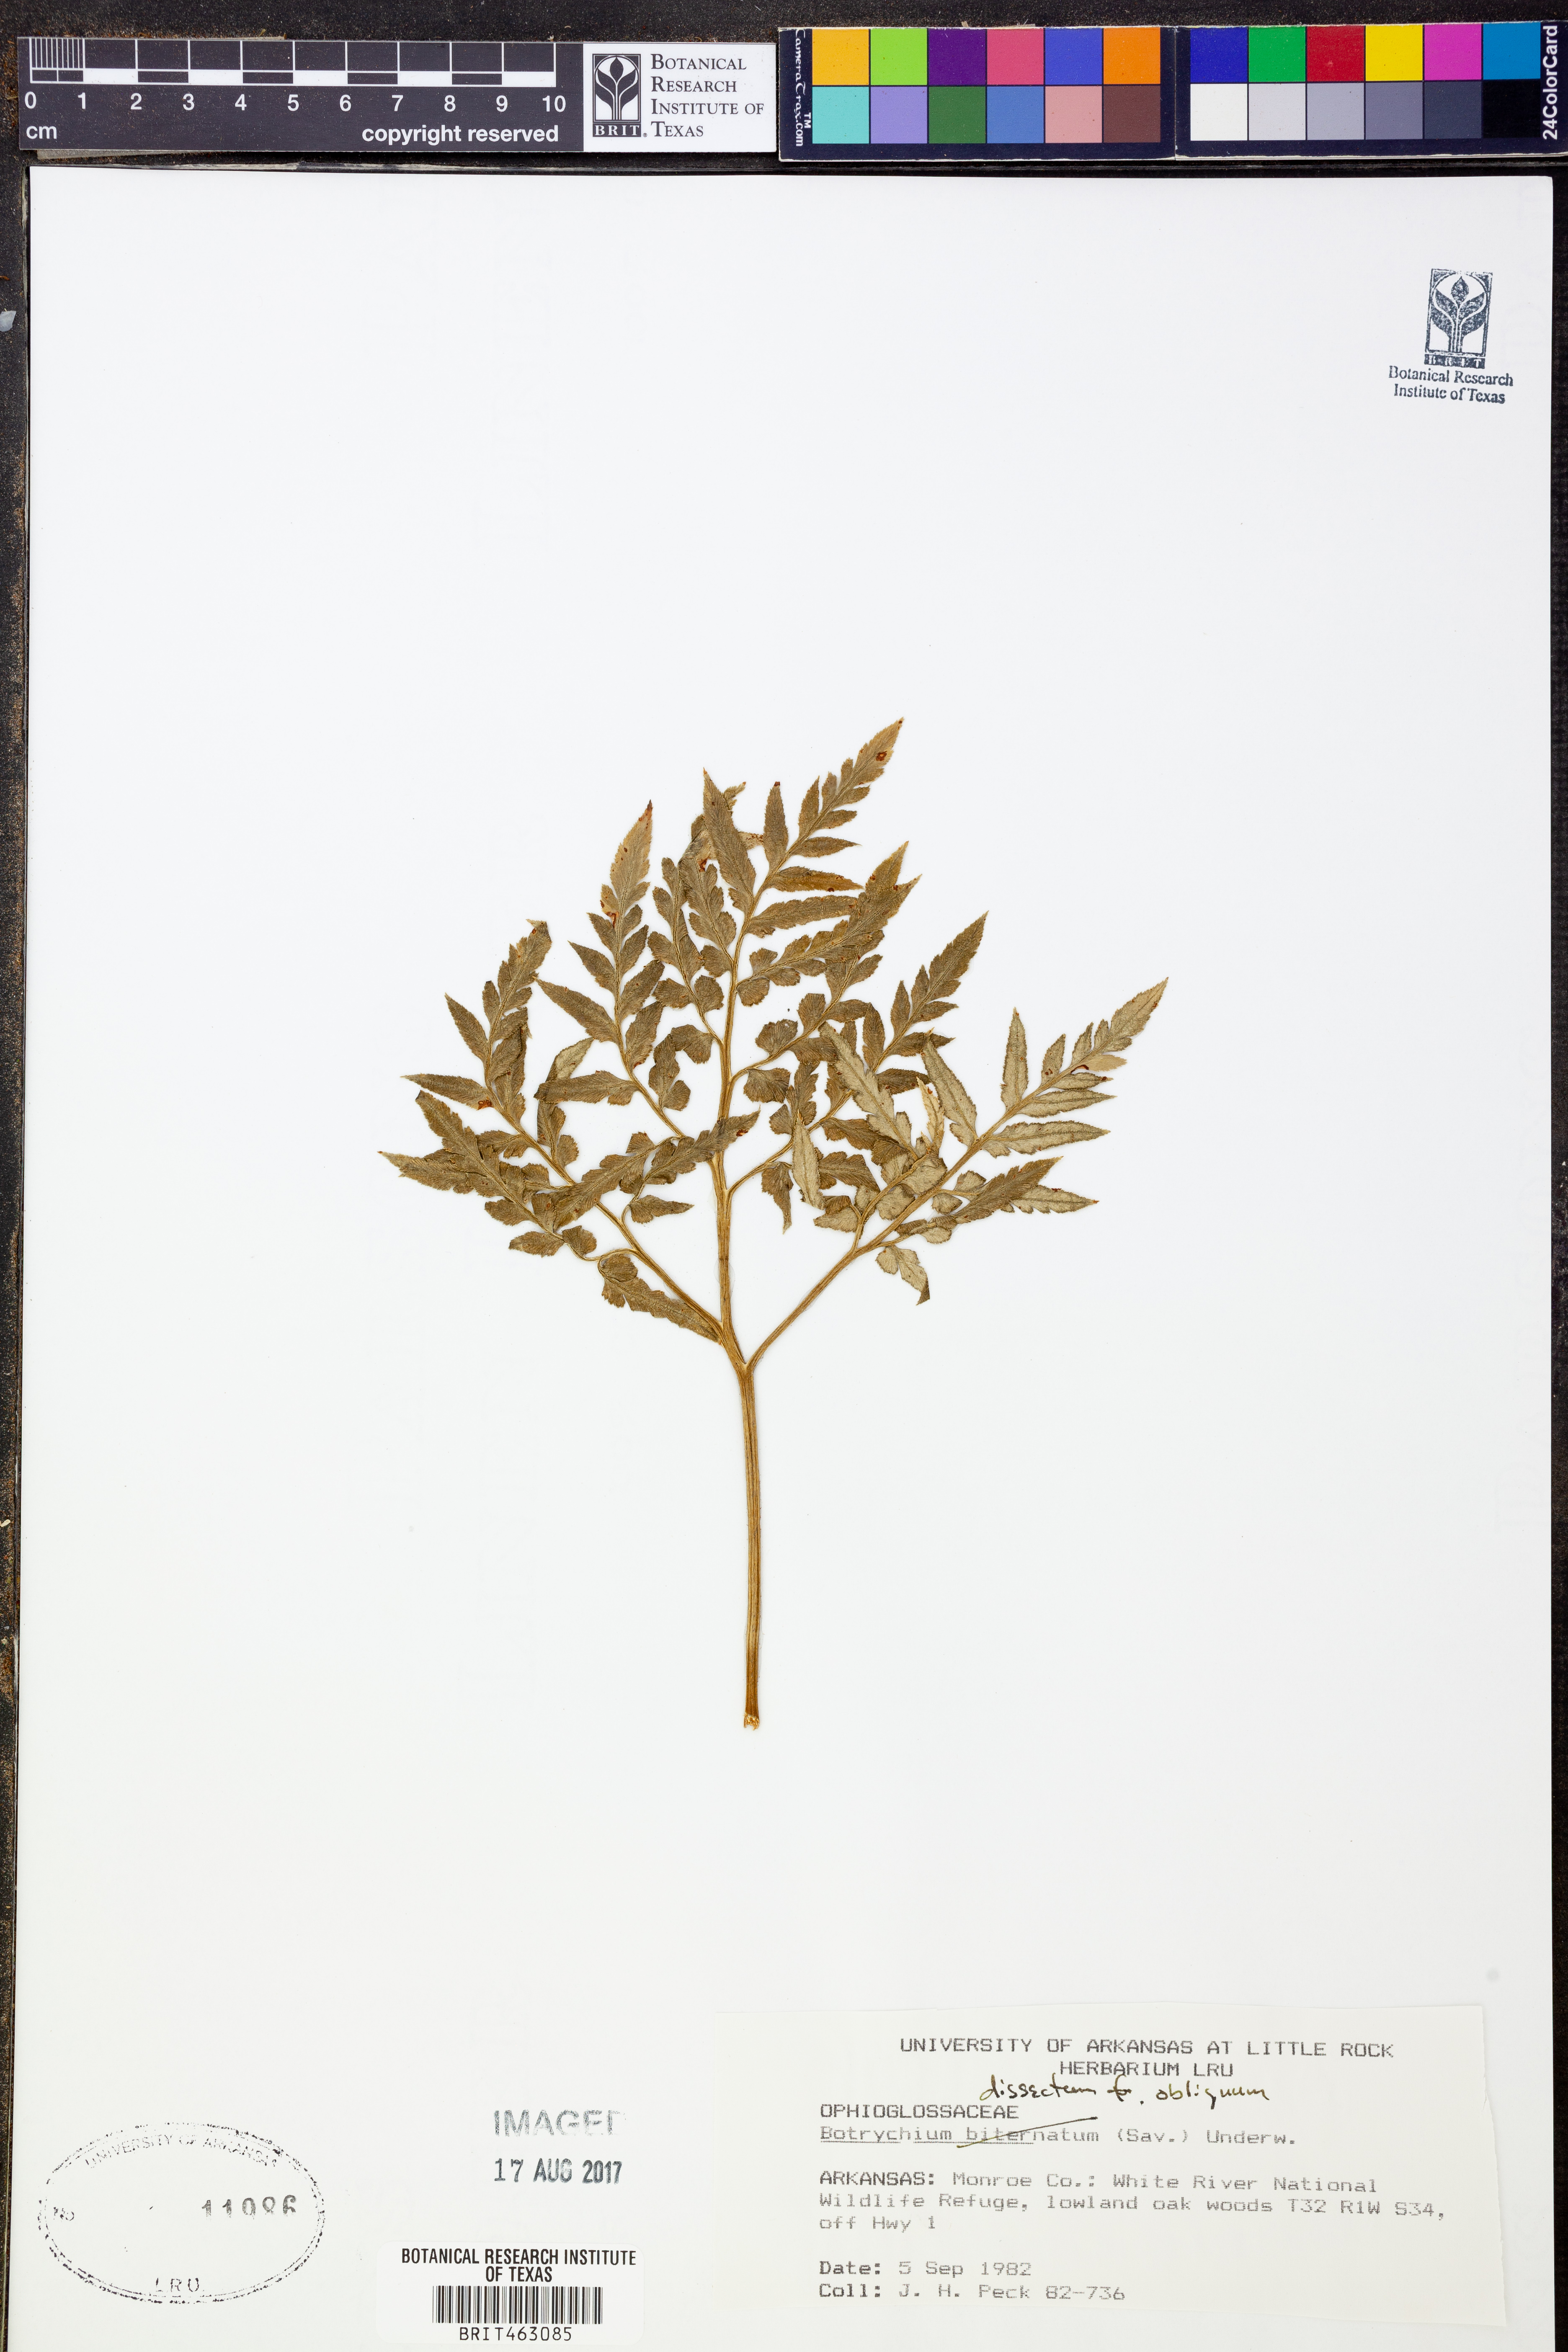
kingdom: Plantae
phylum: Tracheophyta
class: Polypodiopsida
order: Ophioglossales
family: Ophioglossaceae
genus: Sceptridium
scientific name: Sceptridium dissectum
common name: Cut-leaved grapefern
